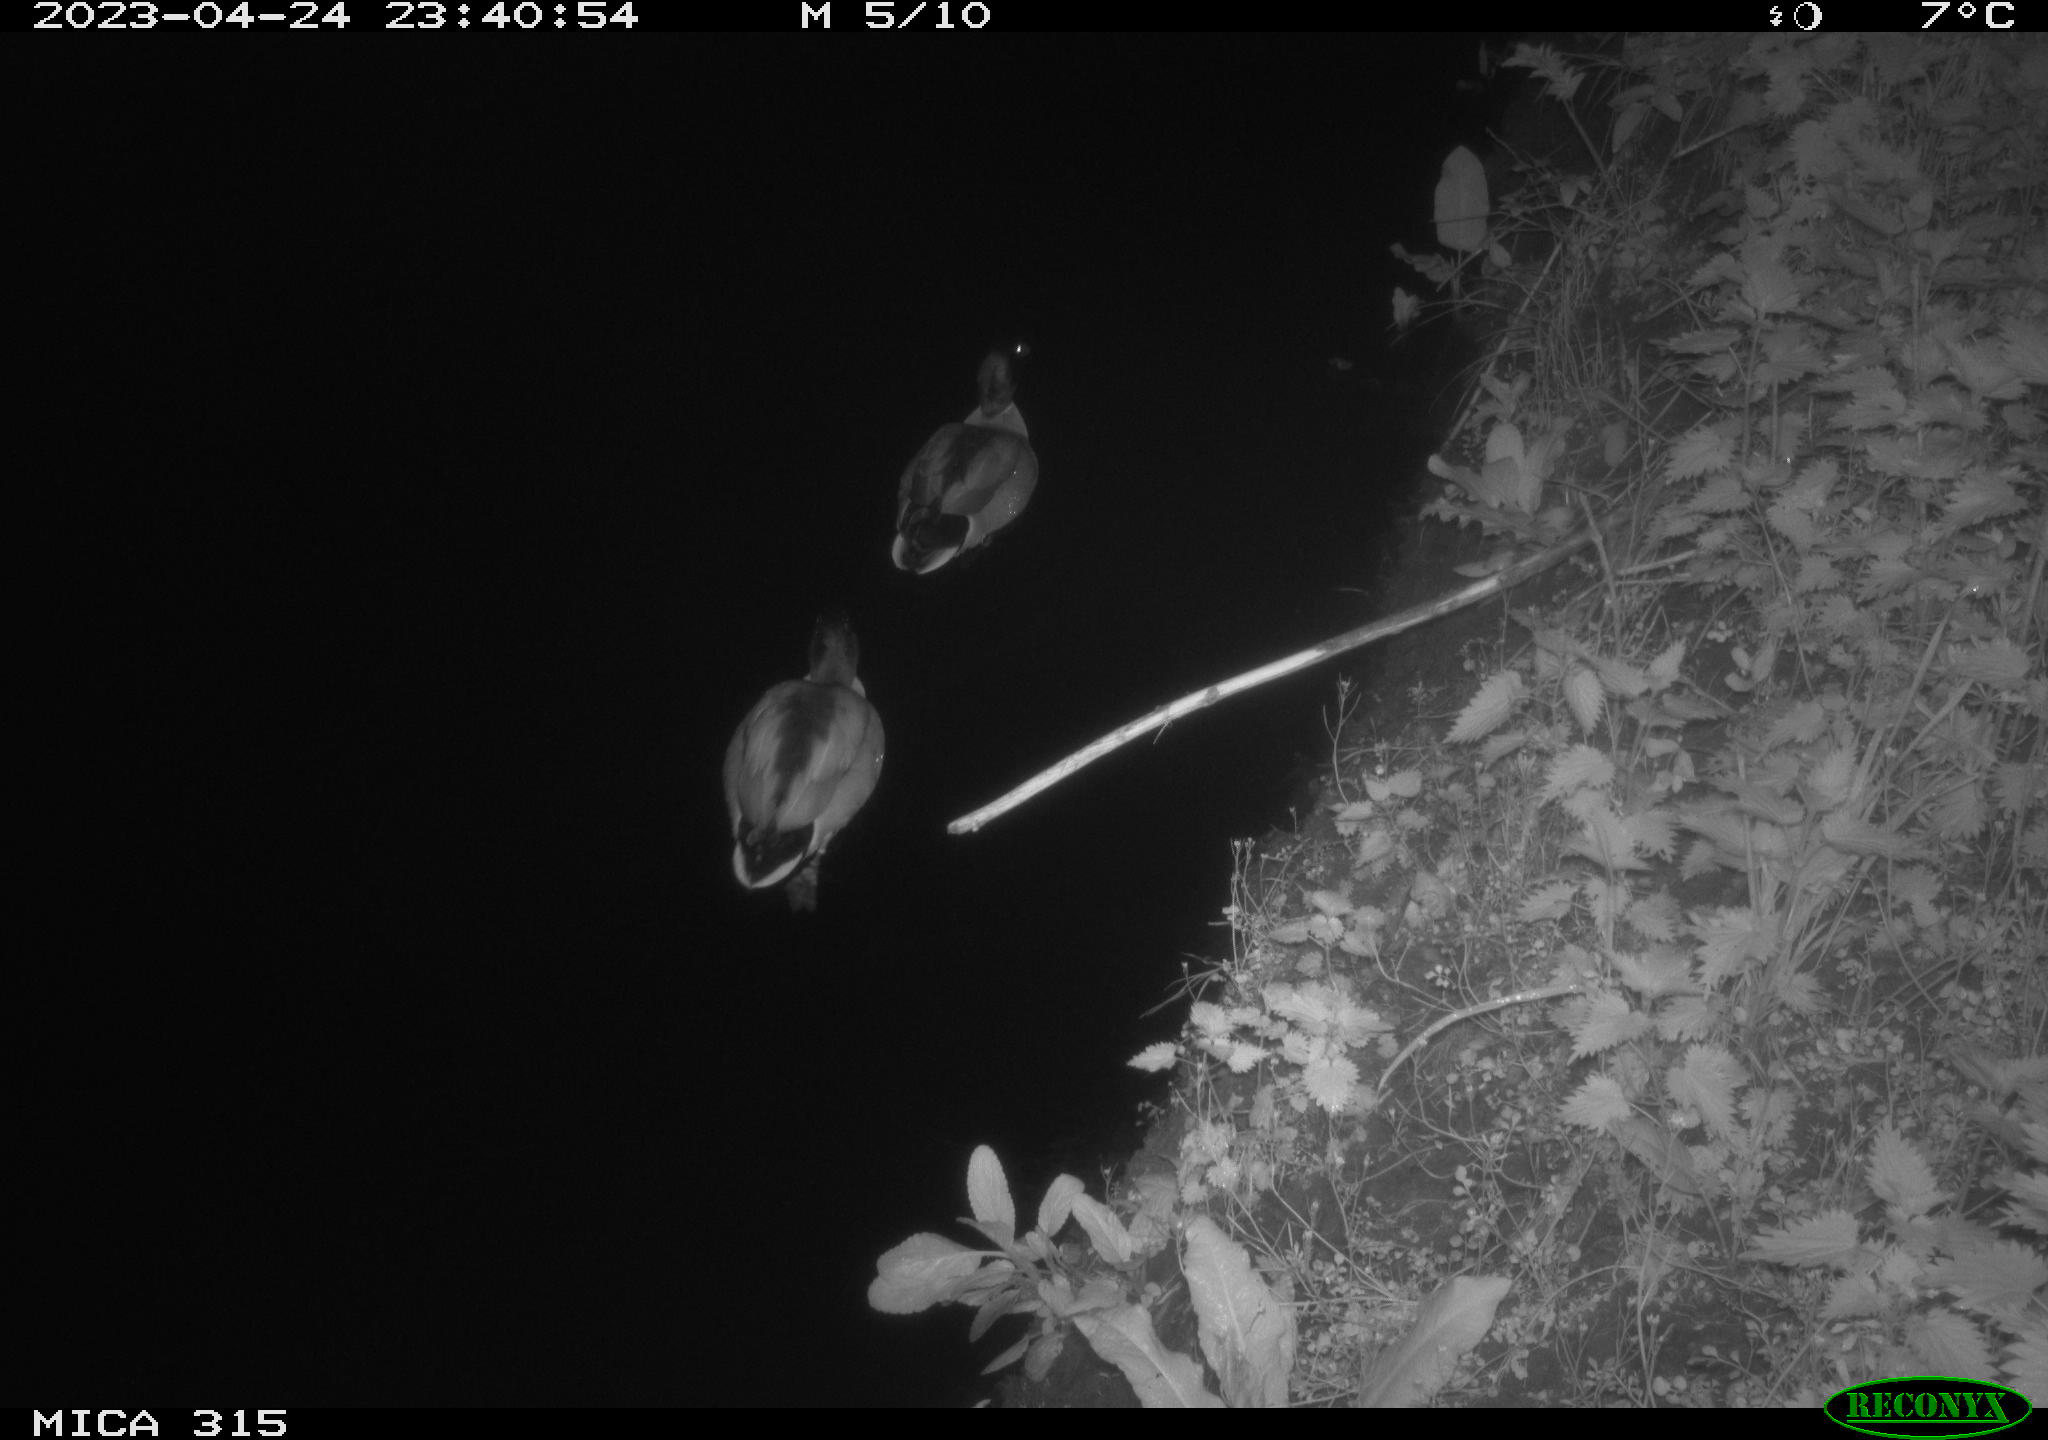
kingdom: Animalia
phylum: Chordata
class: Aves
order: Anseriformes
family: Anatidae
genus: Anas
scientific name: Anas
